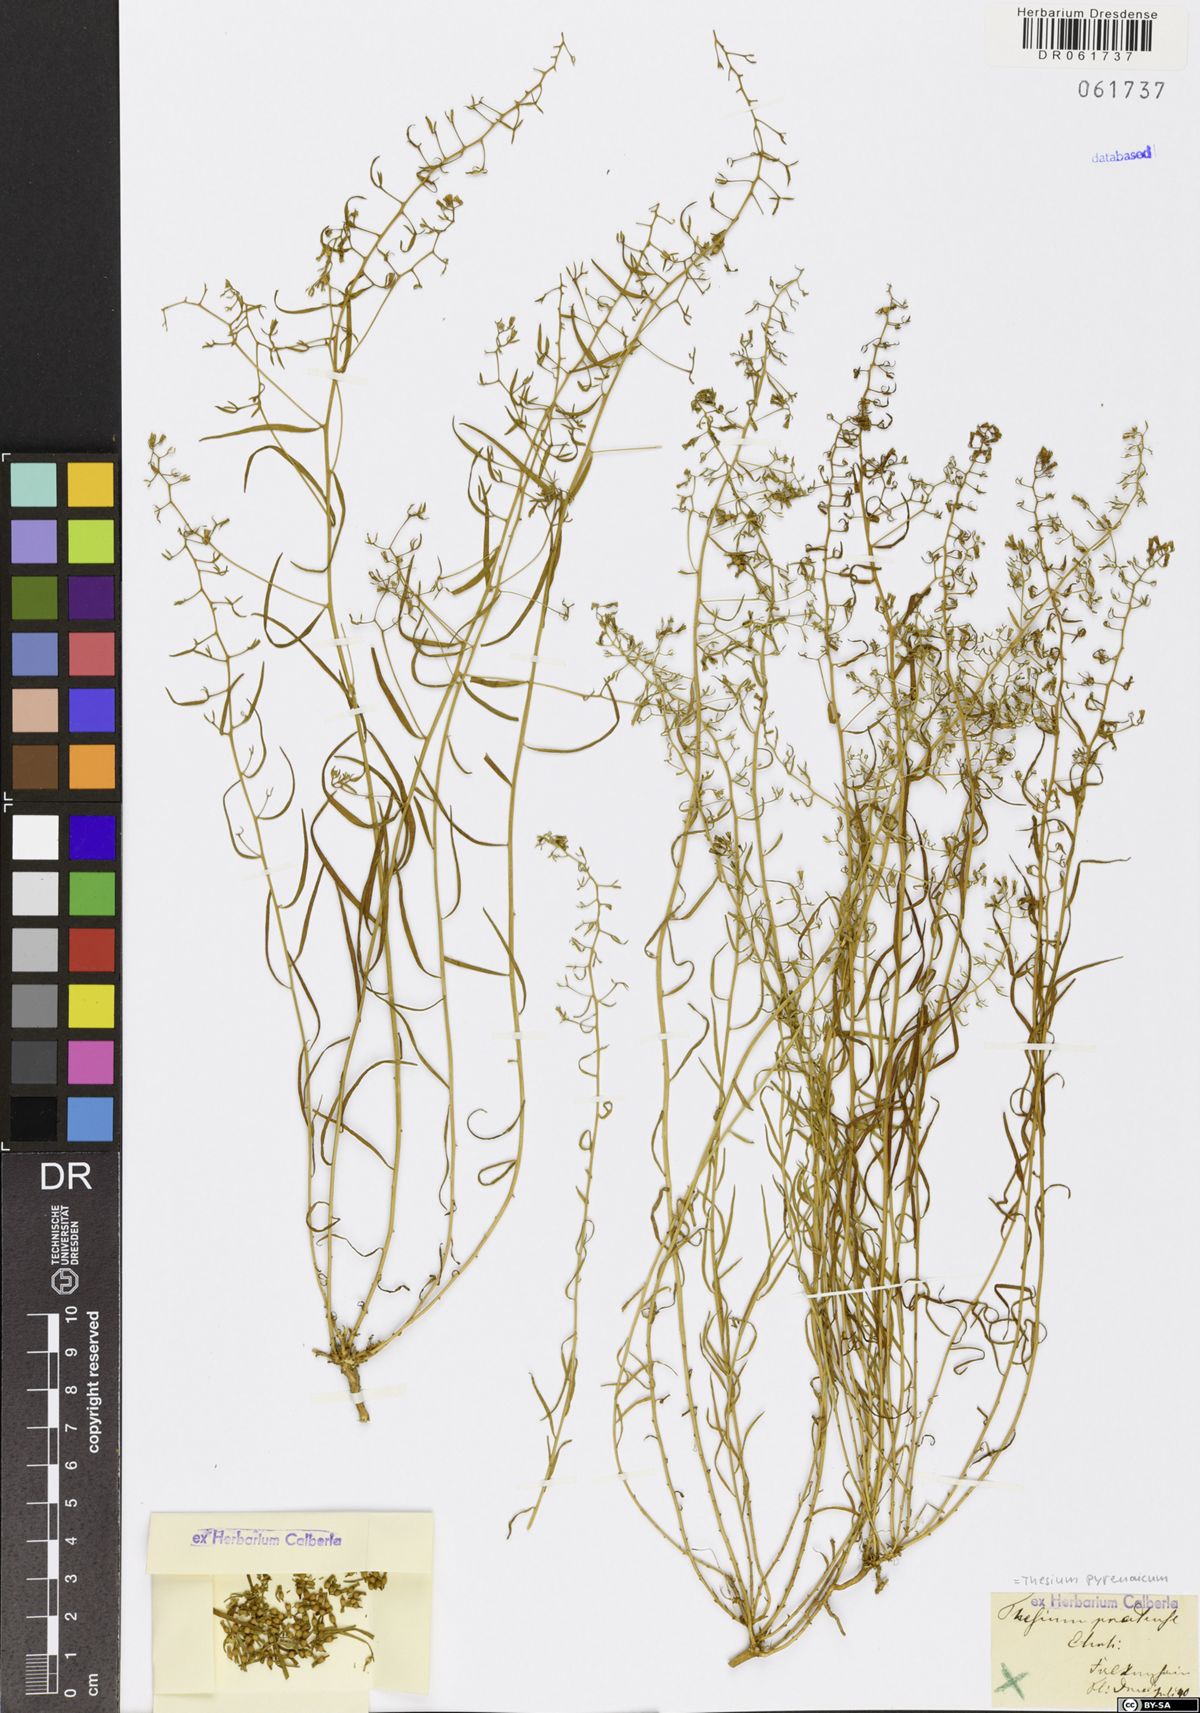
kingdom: Plantae
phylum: Tracheophyta
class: Magnoliopsida
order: Santalales
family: Thesiaceae
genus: Thesium
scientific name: Thesium pyrenaicum
